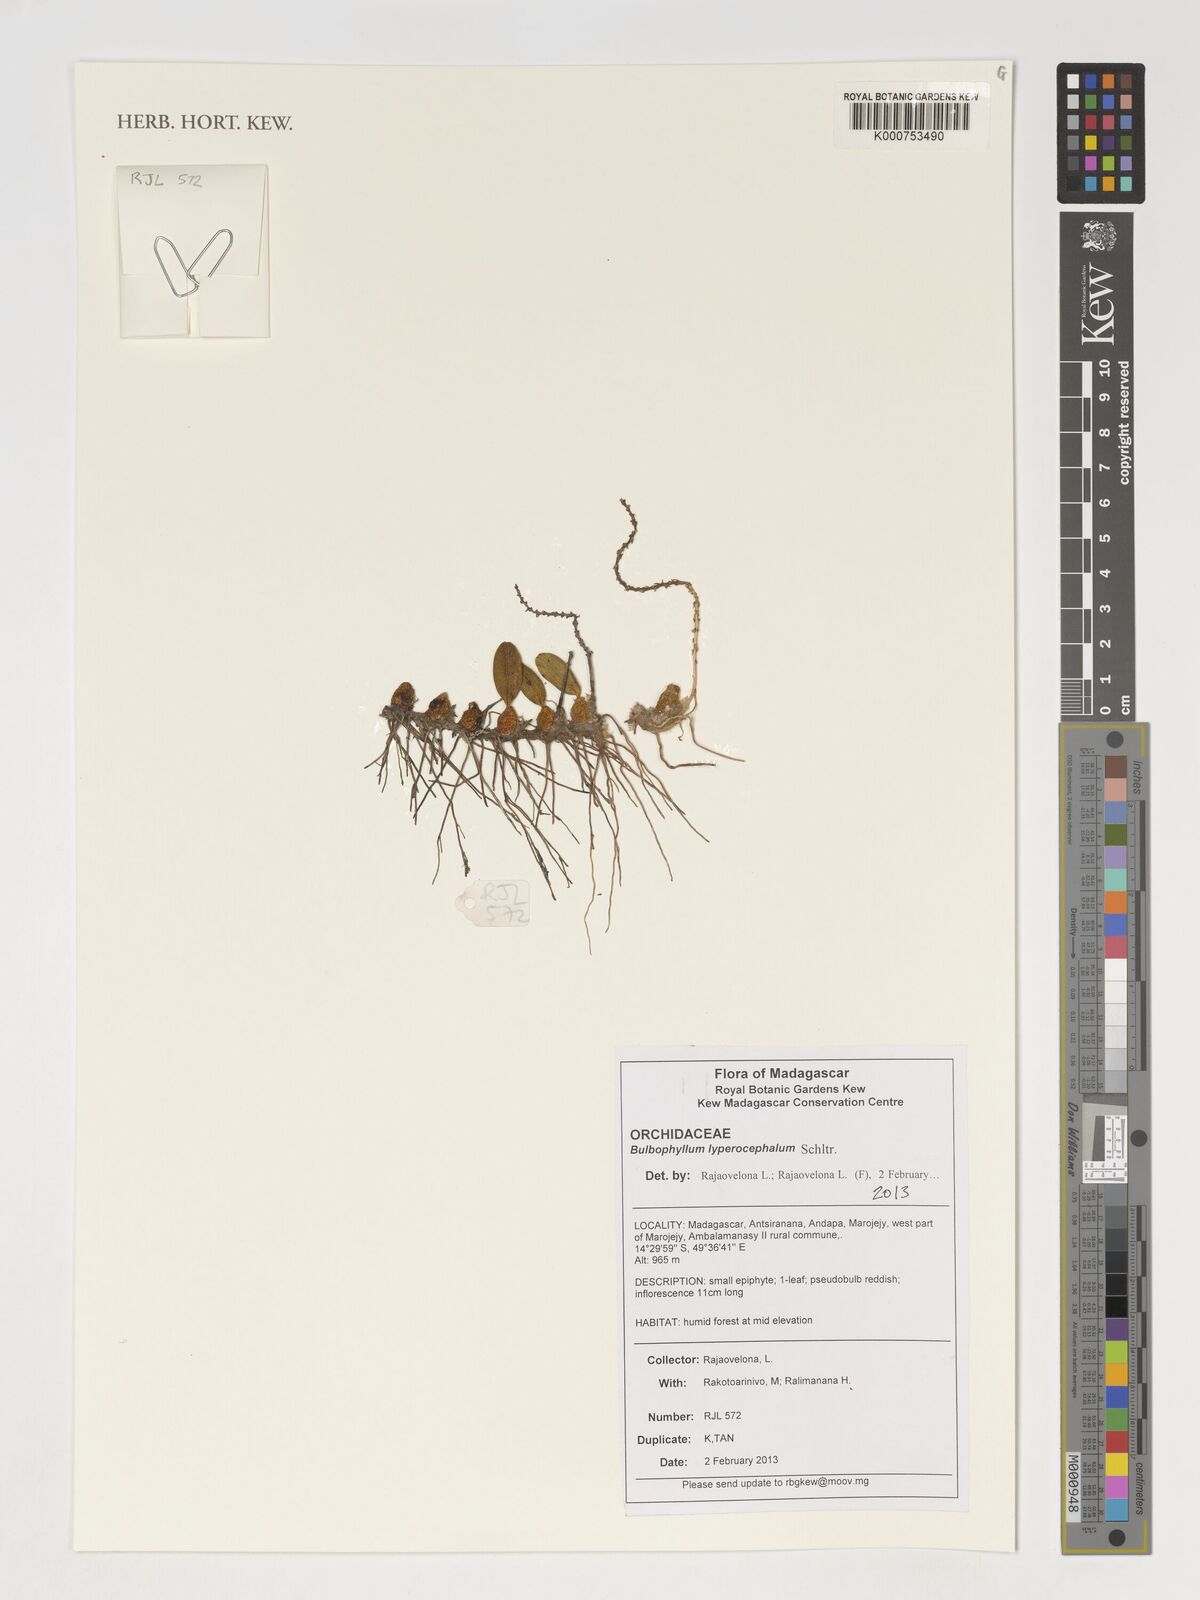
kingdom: Plantae
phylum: Tracheophyta
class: Liliopsida
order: Asparagales
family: Orchidaceae
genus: Bulbophyllum
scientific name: Bulbophyllum lyperocephalum
